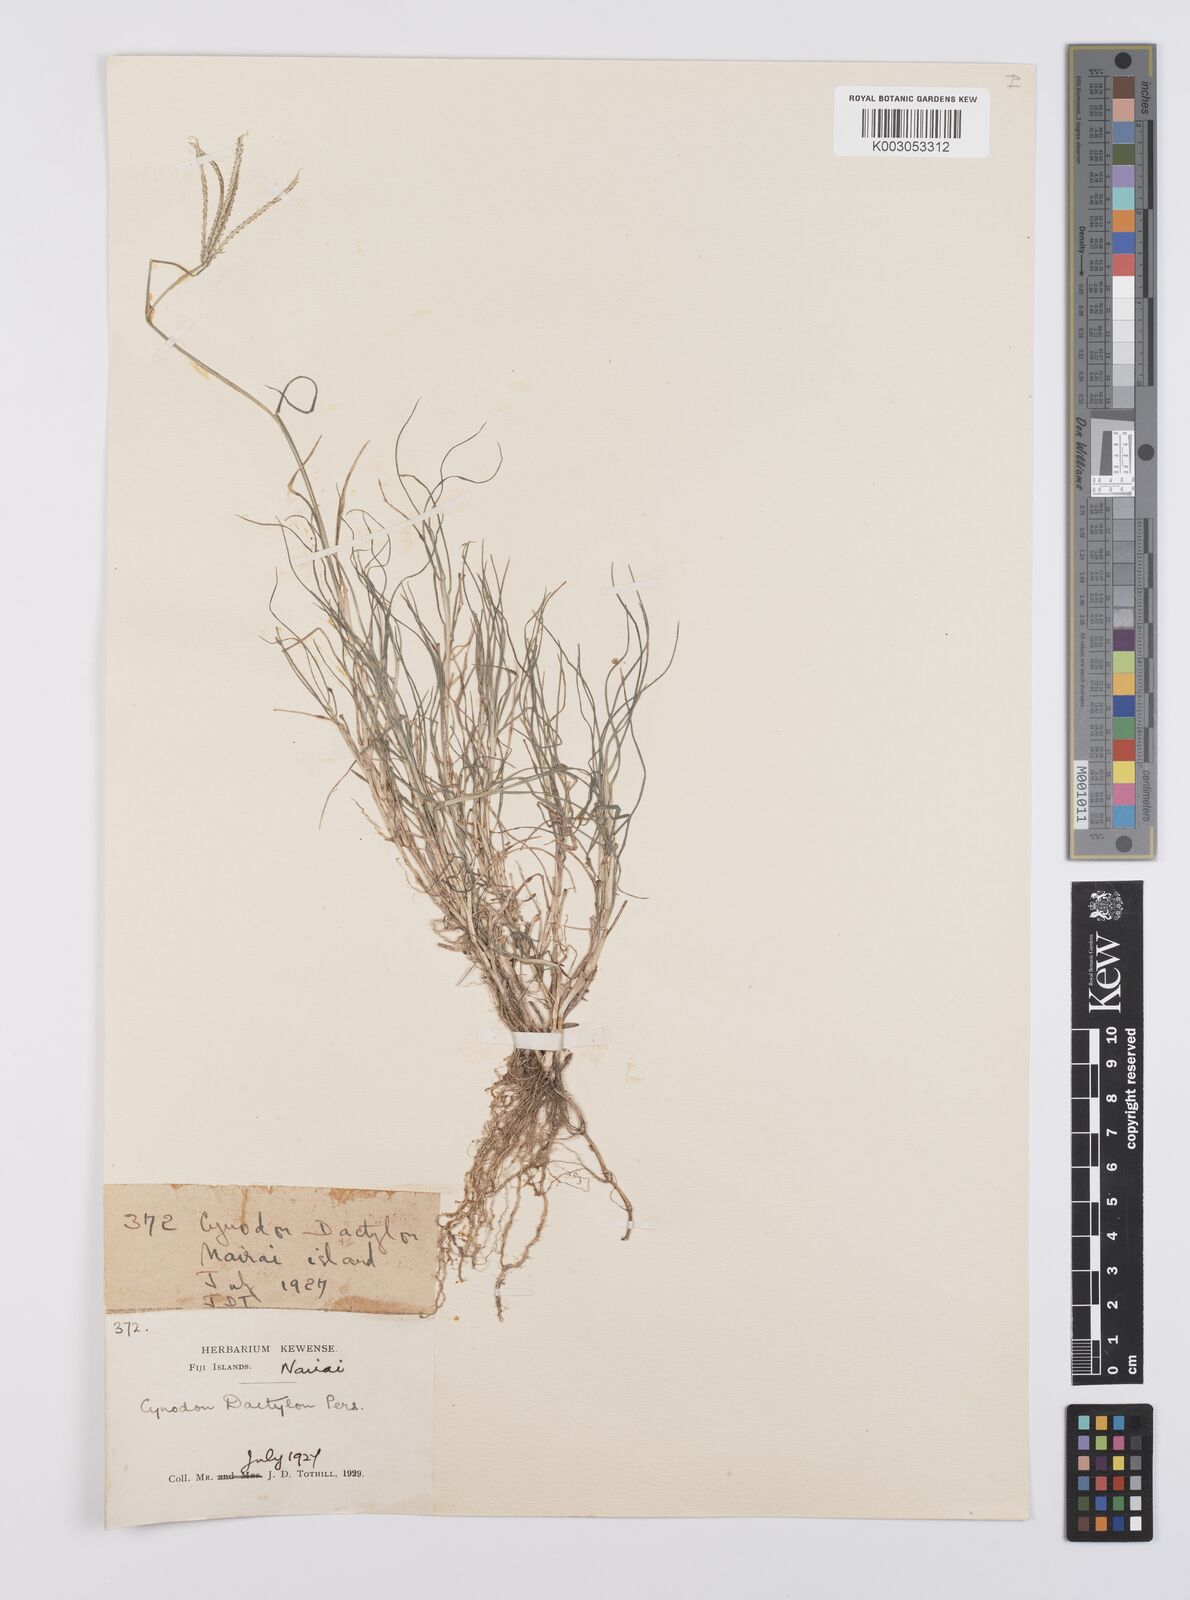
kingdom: Plantae
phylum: Tracheophyta
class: Liliopsida
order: Poales
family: Poaceae
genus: Cynodon
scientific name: Cynodon dactylon
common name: Bermuda grass
